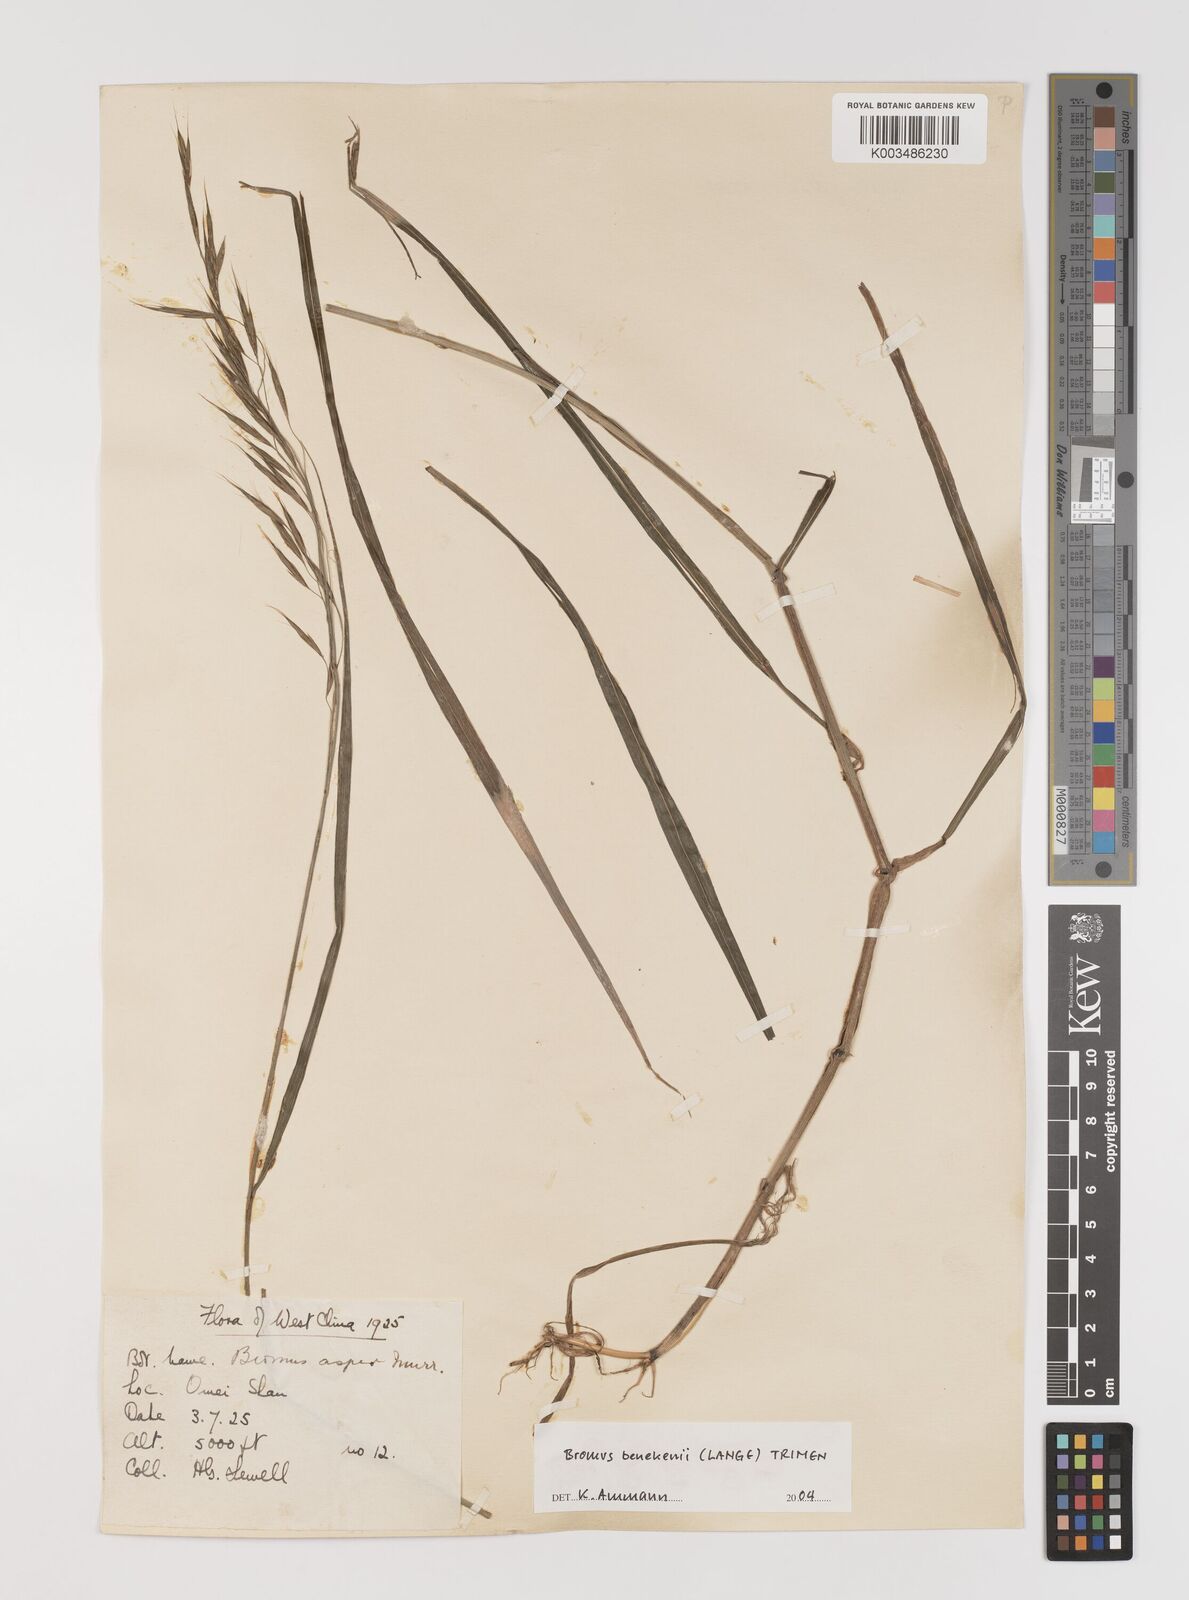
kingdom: Plantae
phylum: Tracheophyta
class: Liliopsida
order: Poales
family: Poaceae
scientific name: Poaceae
